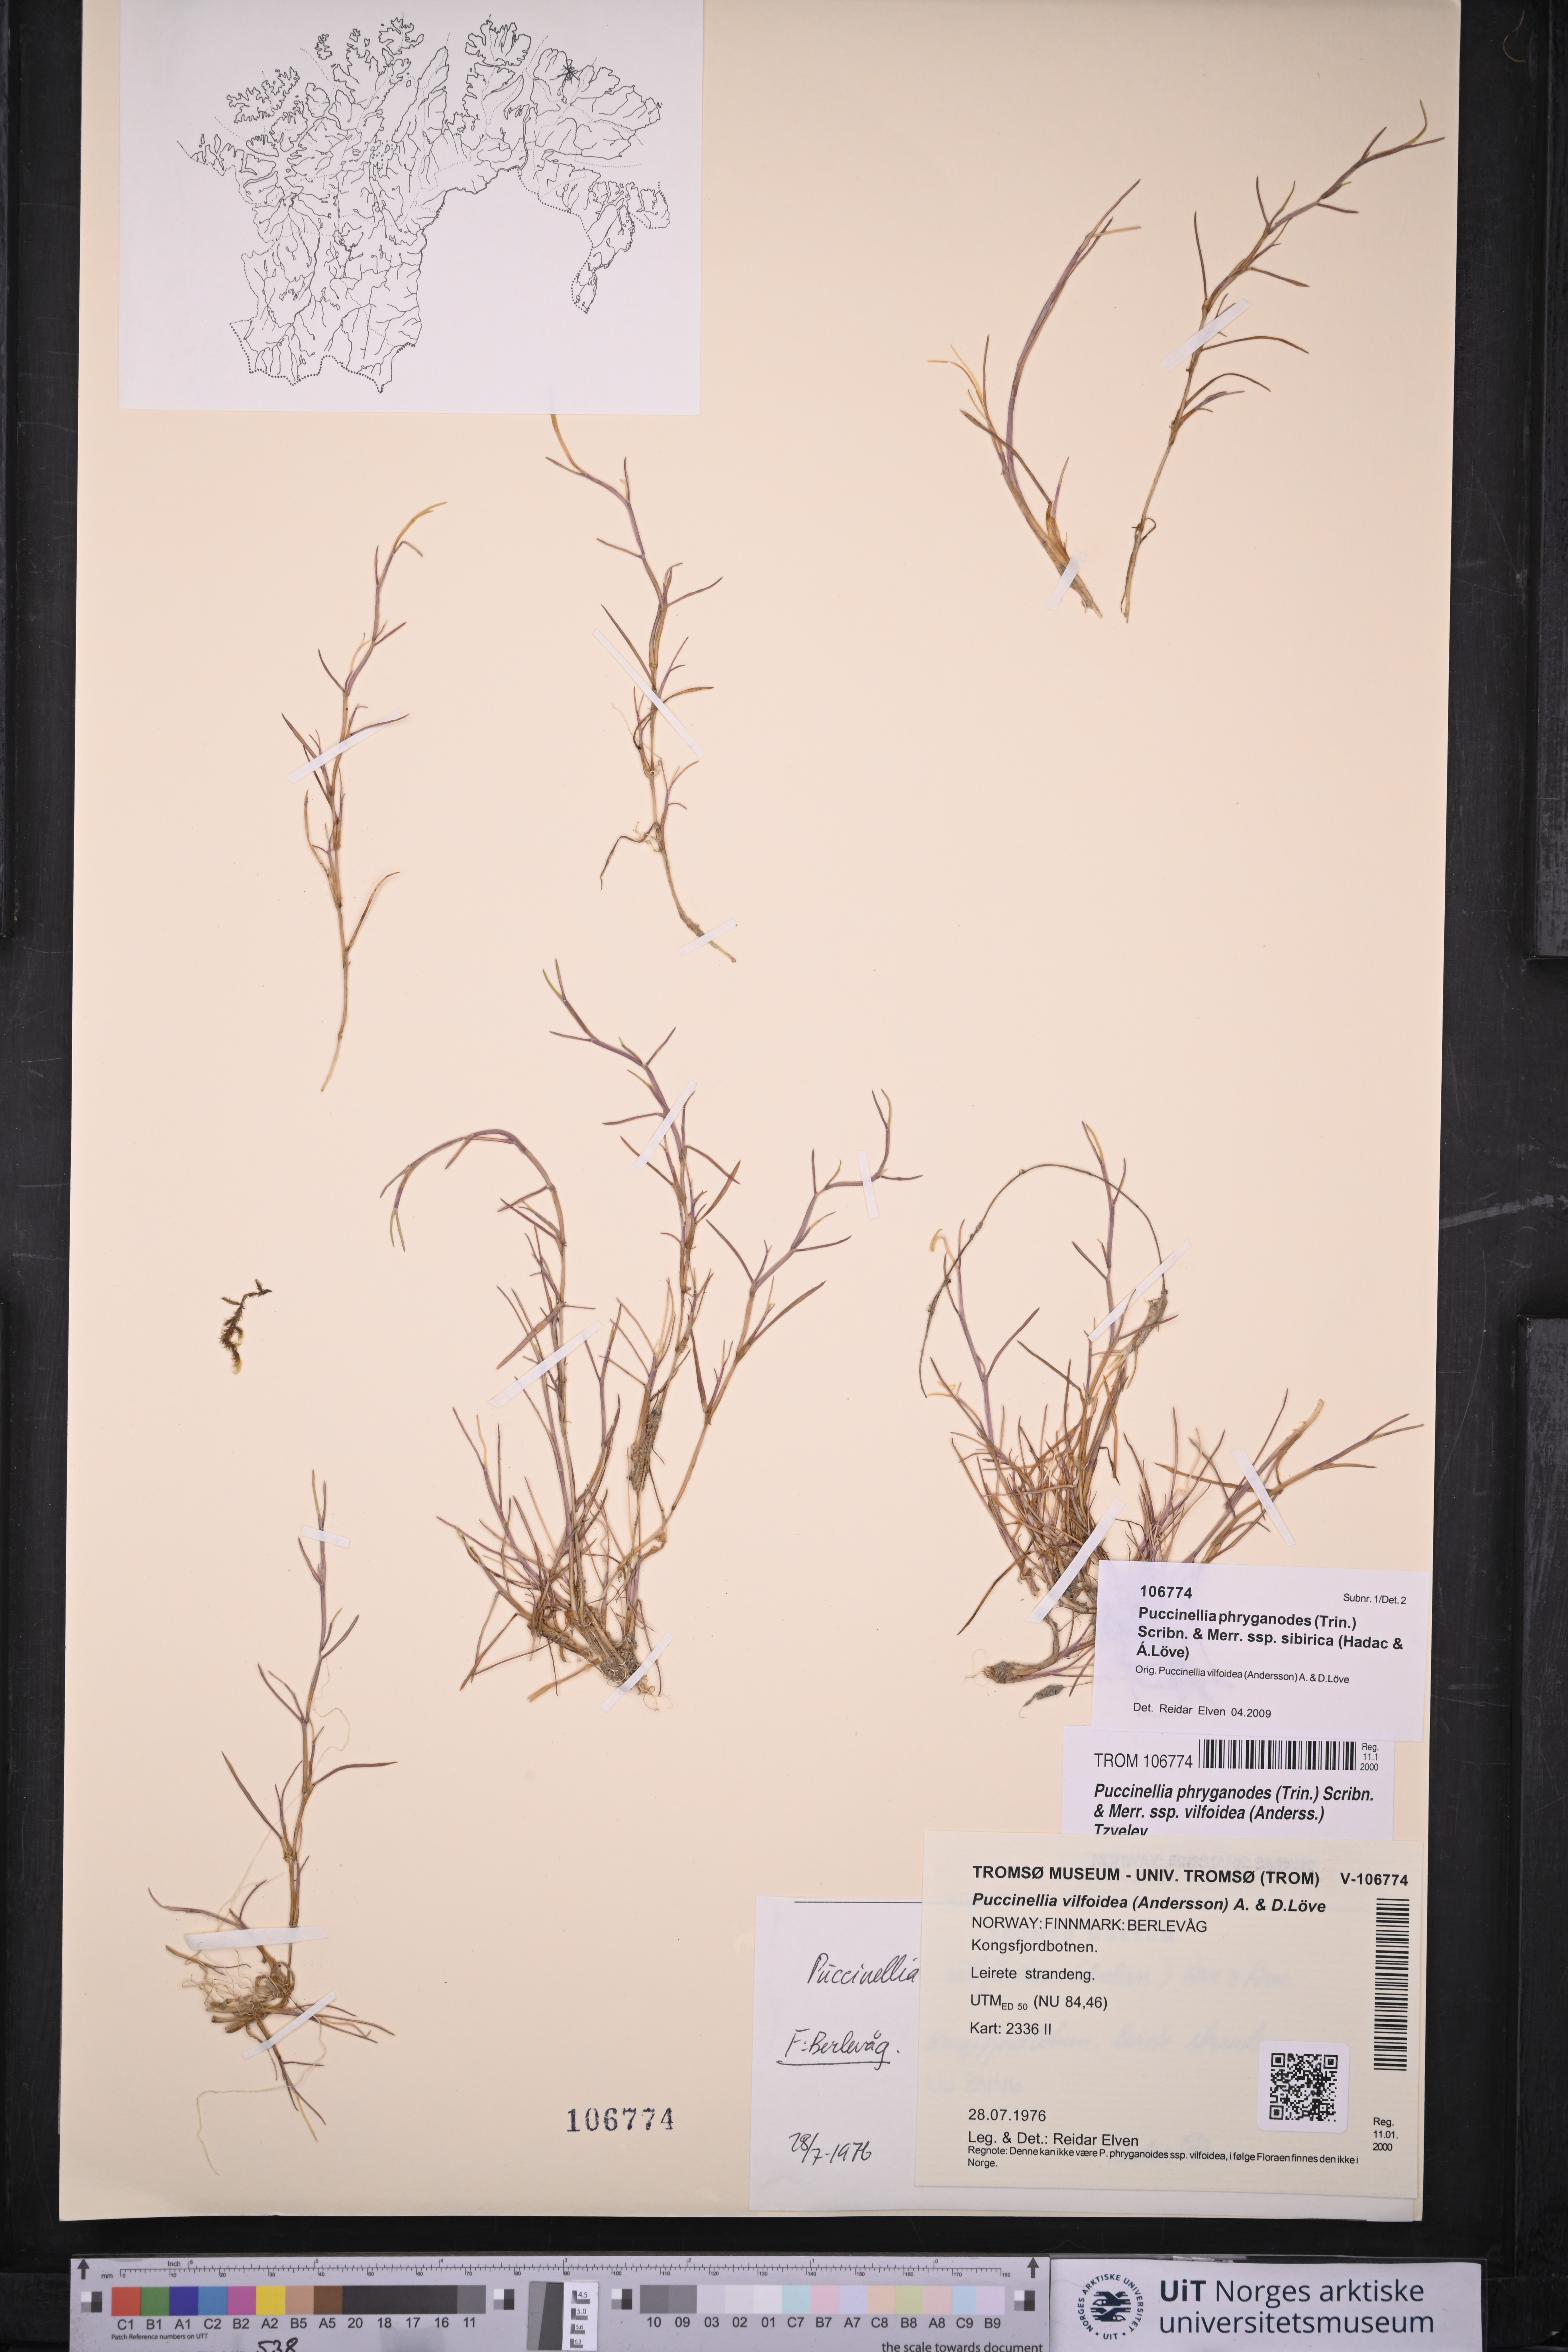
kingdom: Plantae
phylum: Tracheophyta
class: Liliopsida
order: Poales
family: Poaceae
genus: Puccinellia
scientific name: Puccinellia phryganodes
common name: Creeping alkaligrass
